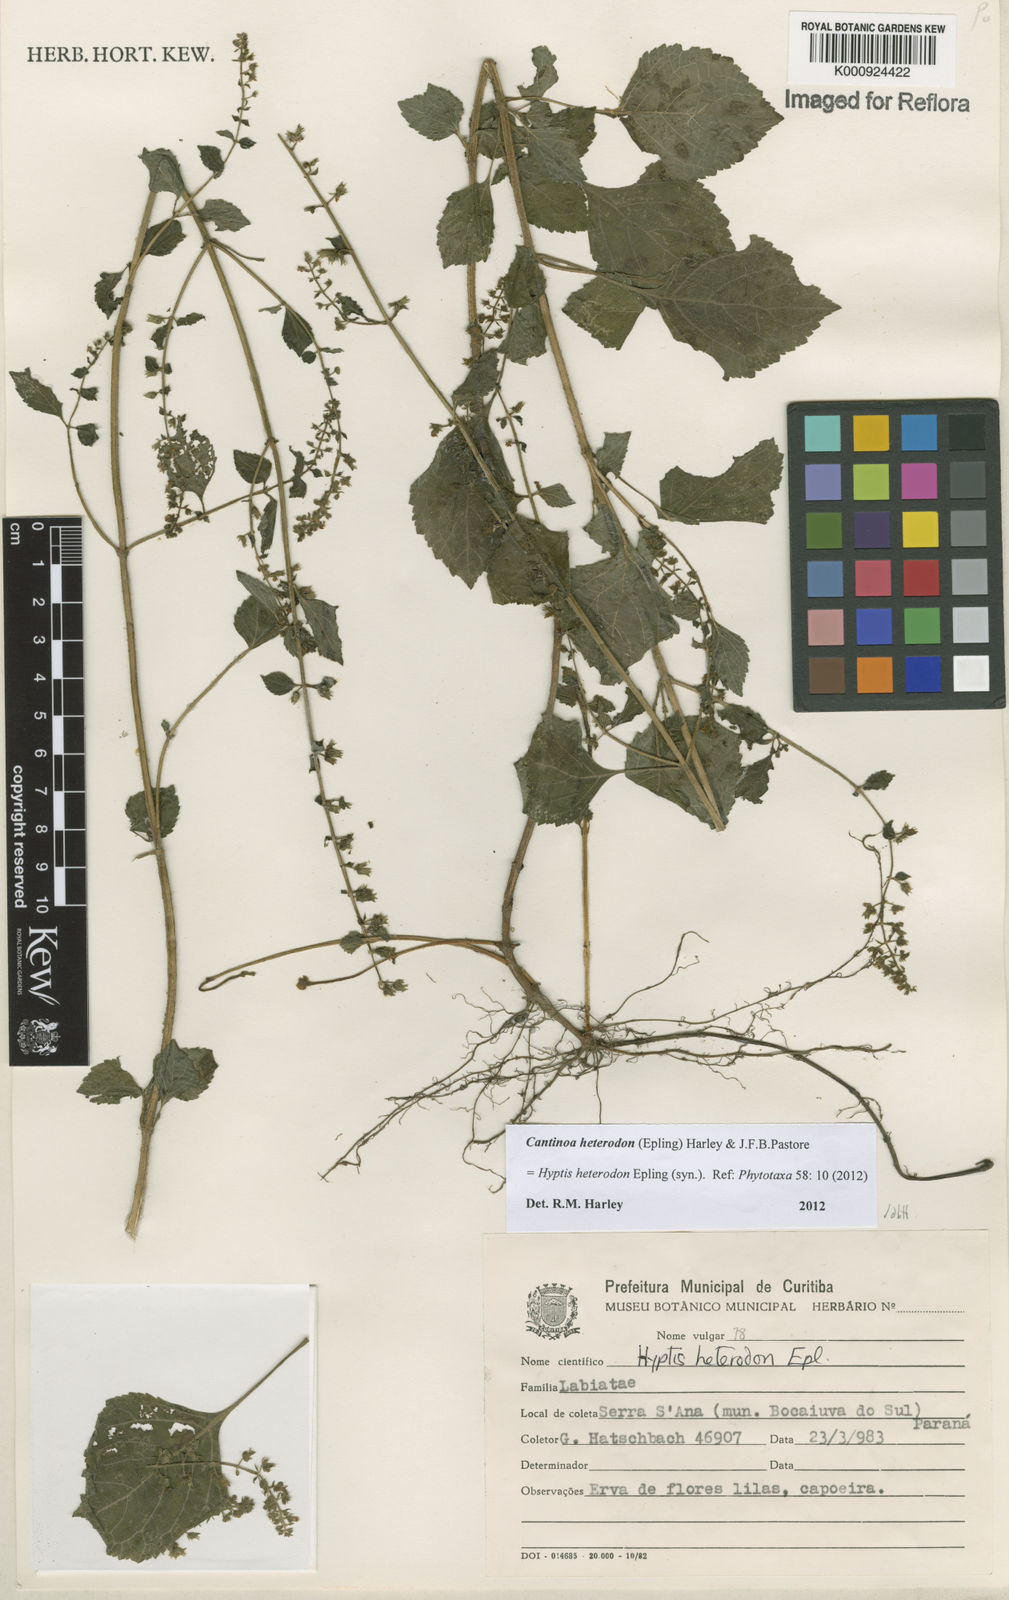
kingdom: Plantae
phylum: Tracheophyta
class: Magnoliopsida
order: Lamiales
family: Lamiaceae
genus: Cantinoa
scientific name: Cantinoa heterodon
